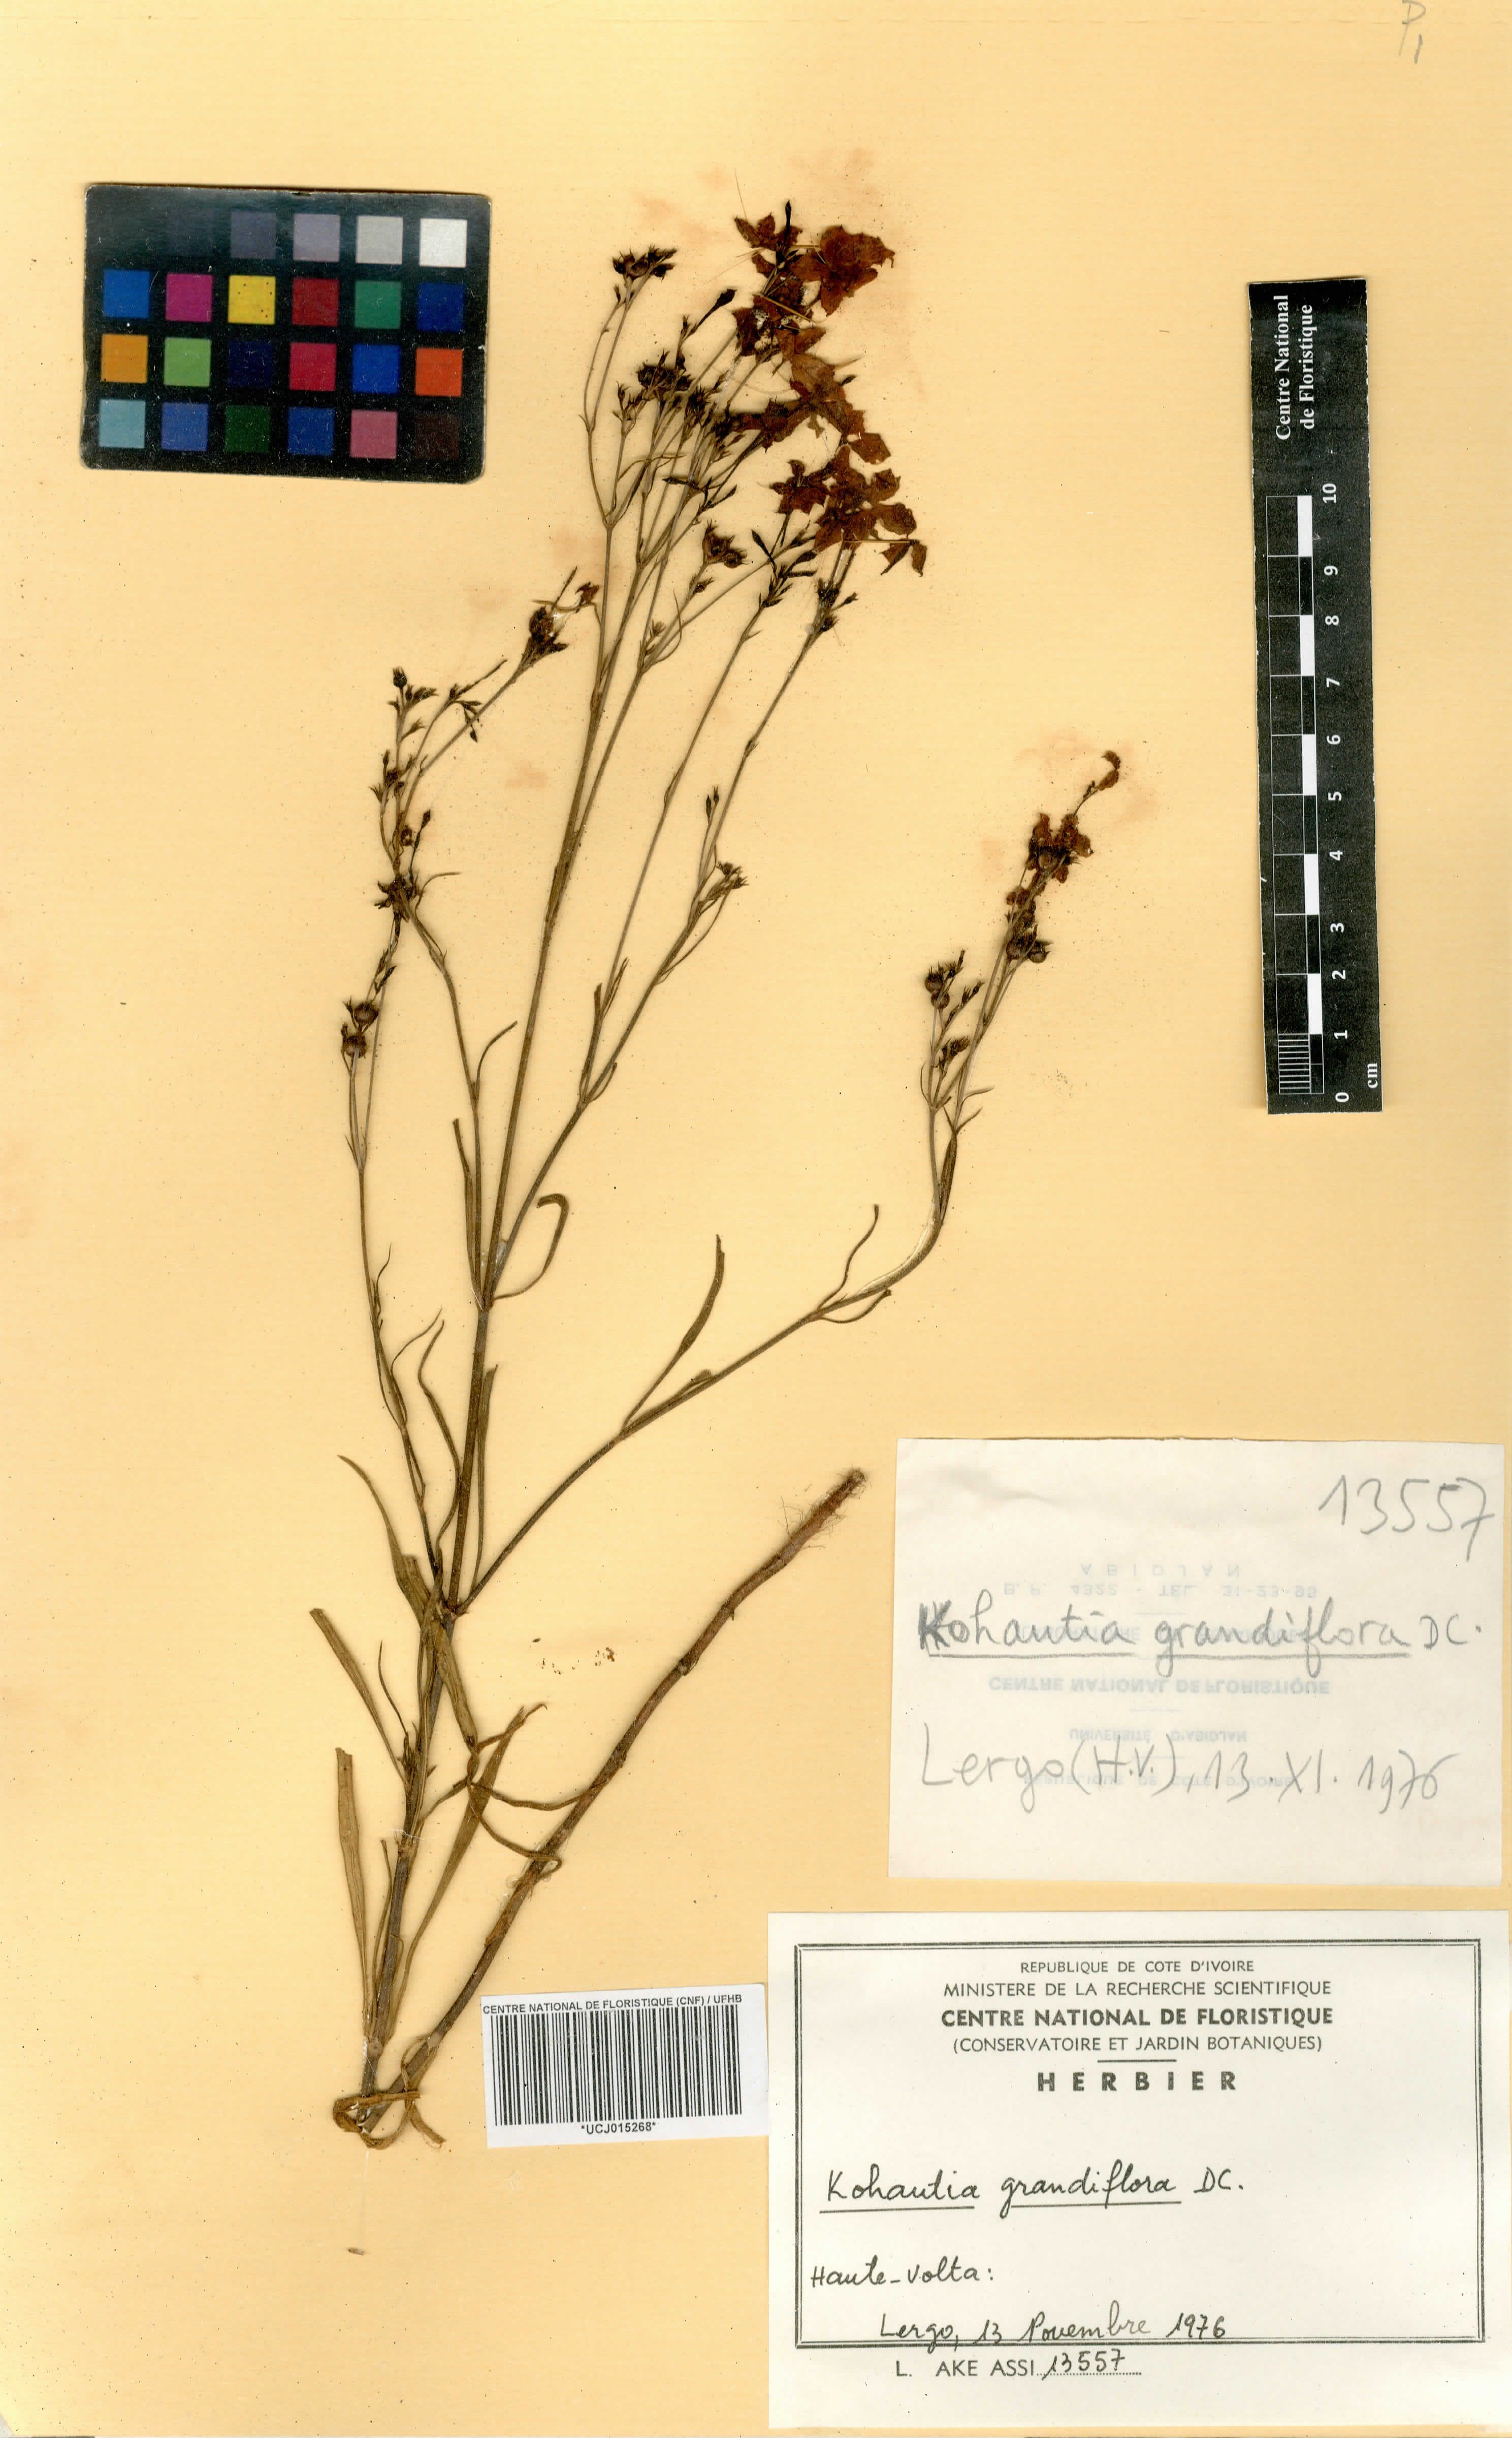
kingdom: Plantae
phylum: Tracheophyta
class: Magnoliopsida
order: Gentianales
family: Rubiaceae
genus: Kohautia
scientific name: Kohautia grandiflora
